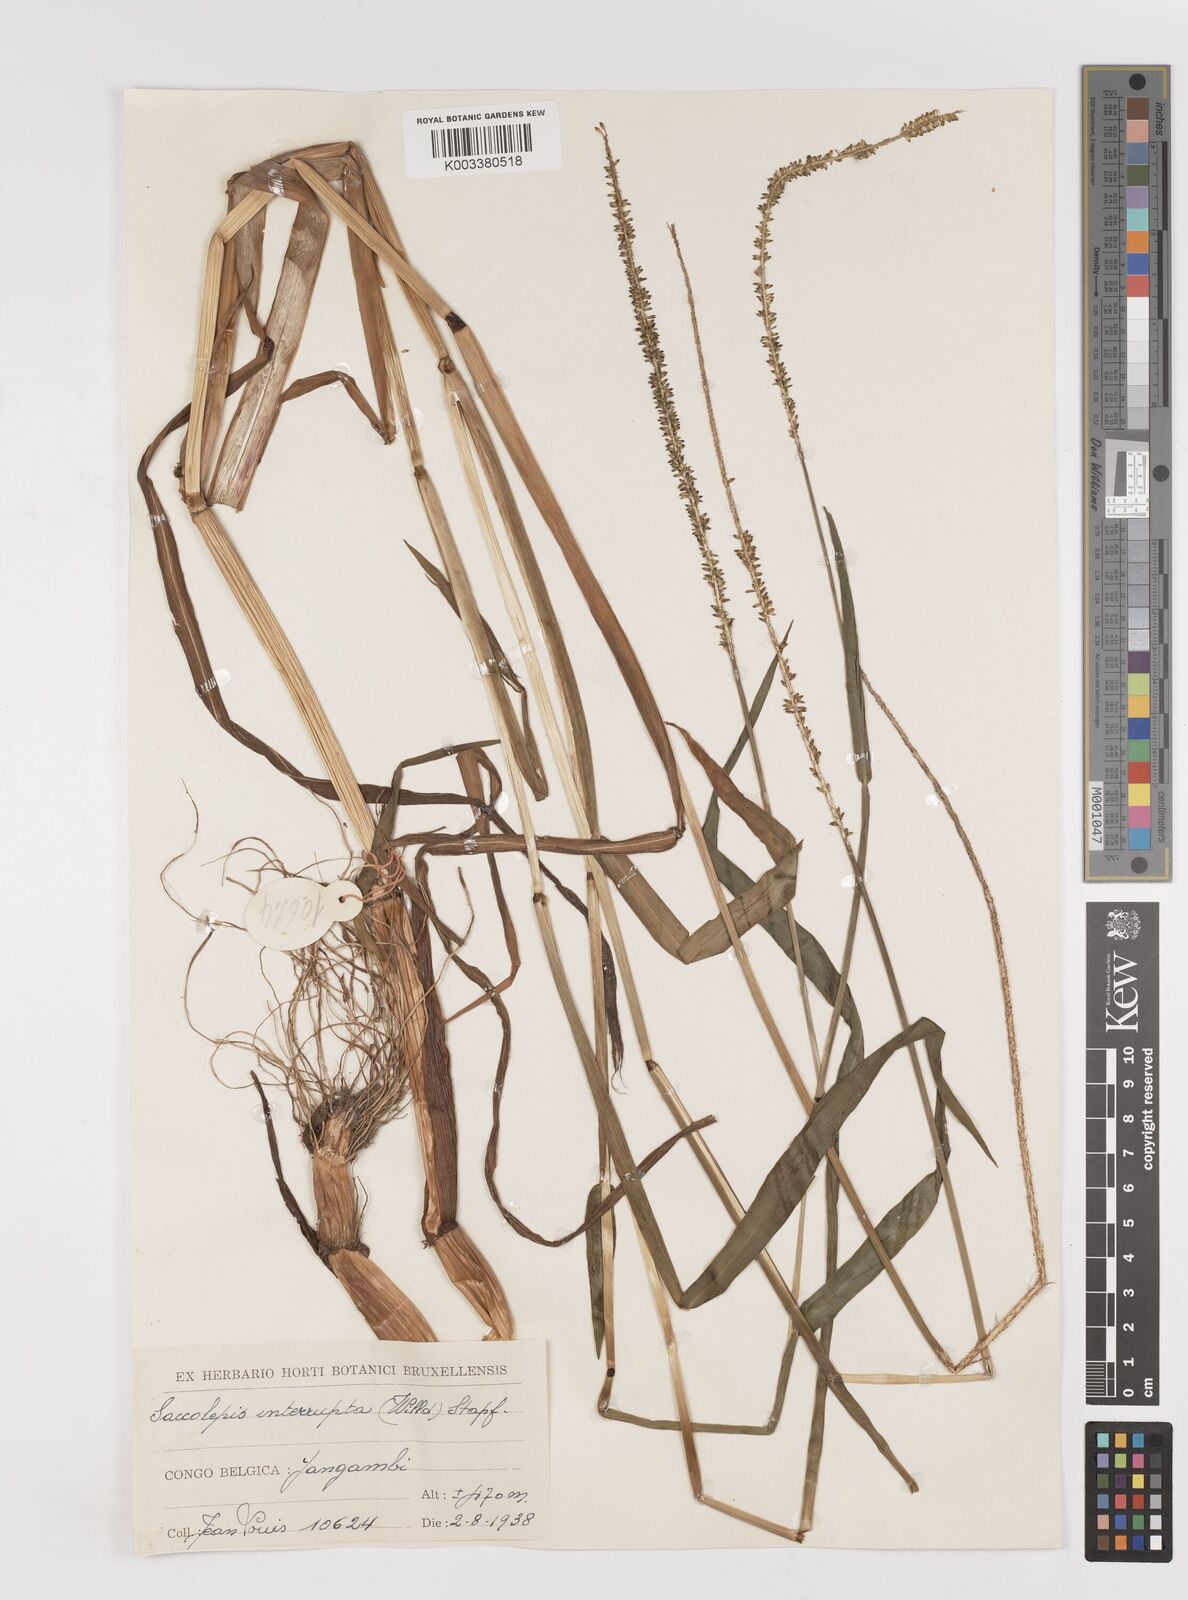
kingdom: Plantae
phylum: Tracheophyta
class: Liliopsida
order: Poales
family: Poaceae
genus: Sacciolepis
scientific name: Sacciolepis africana
